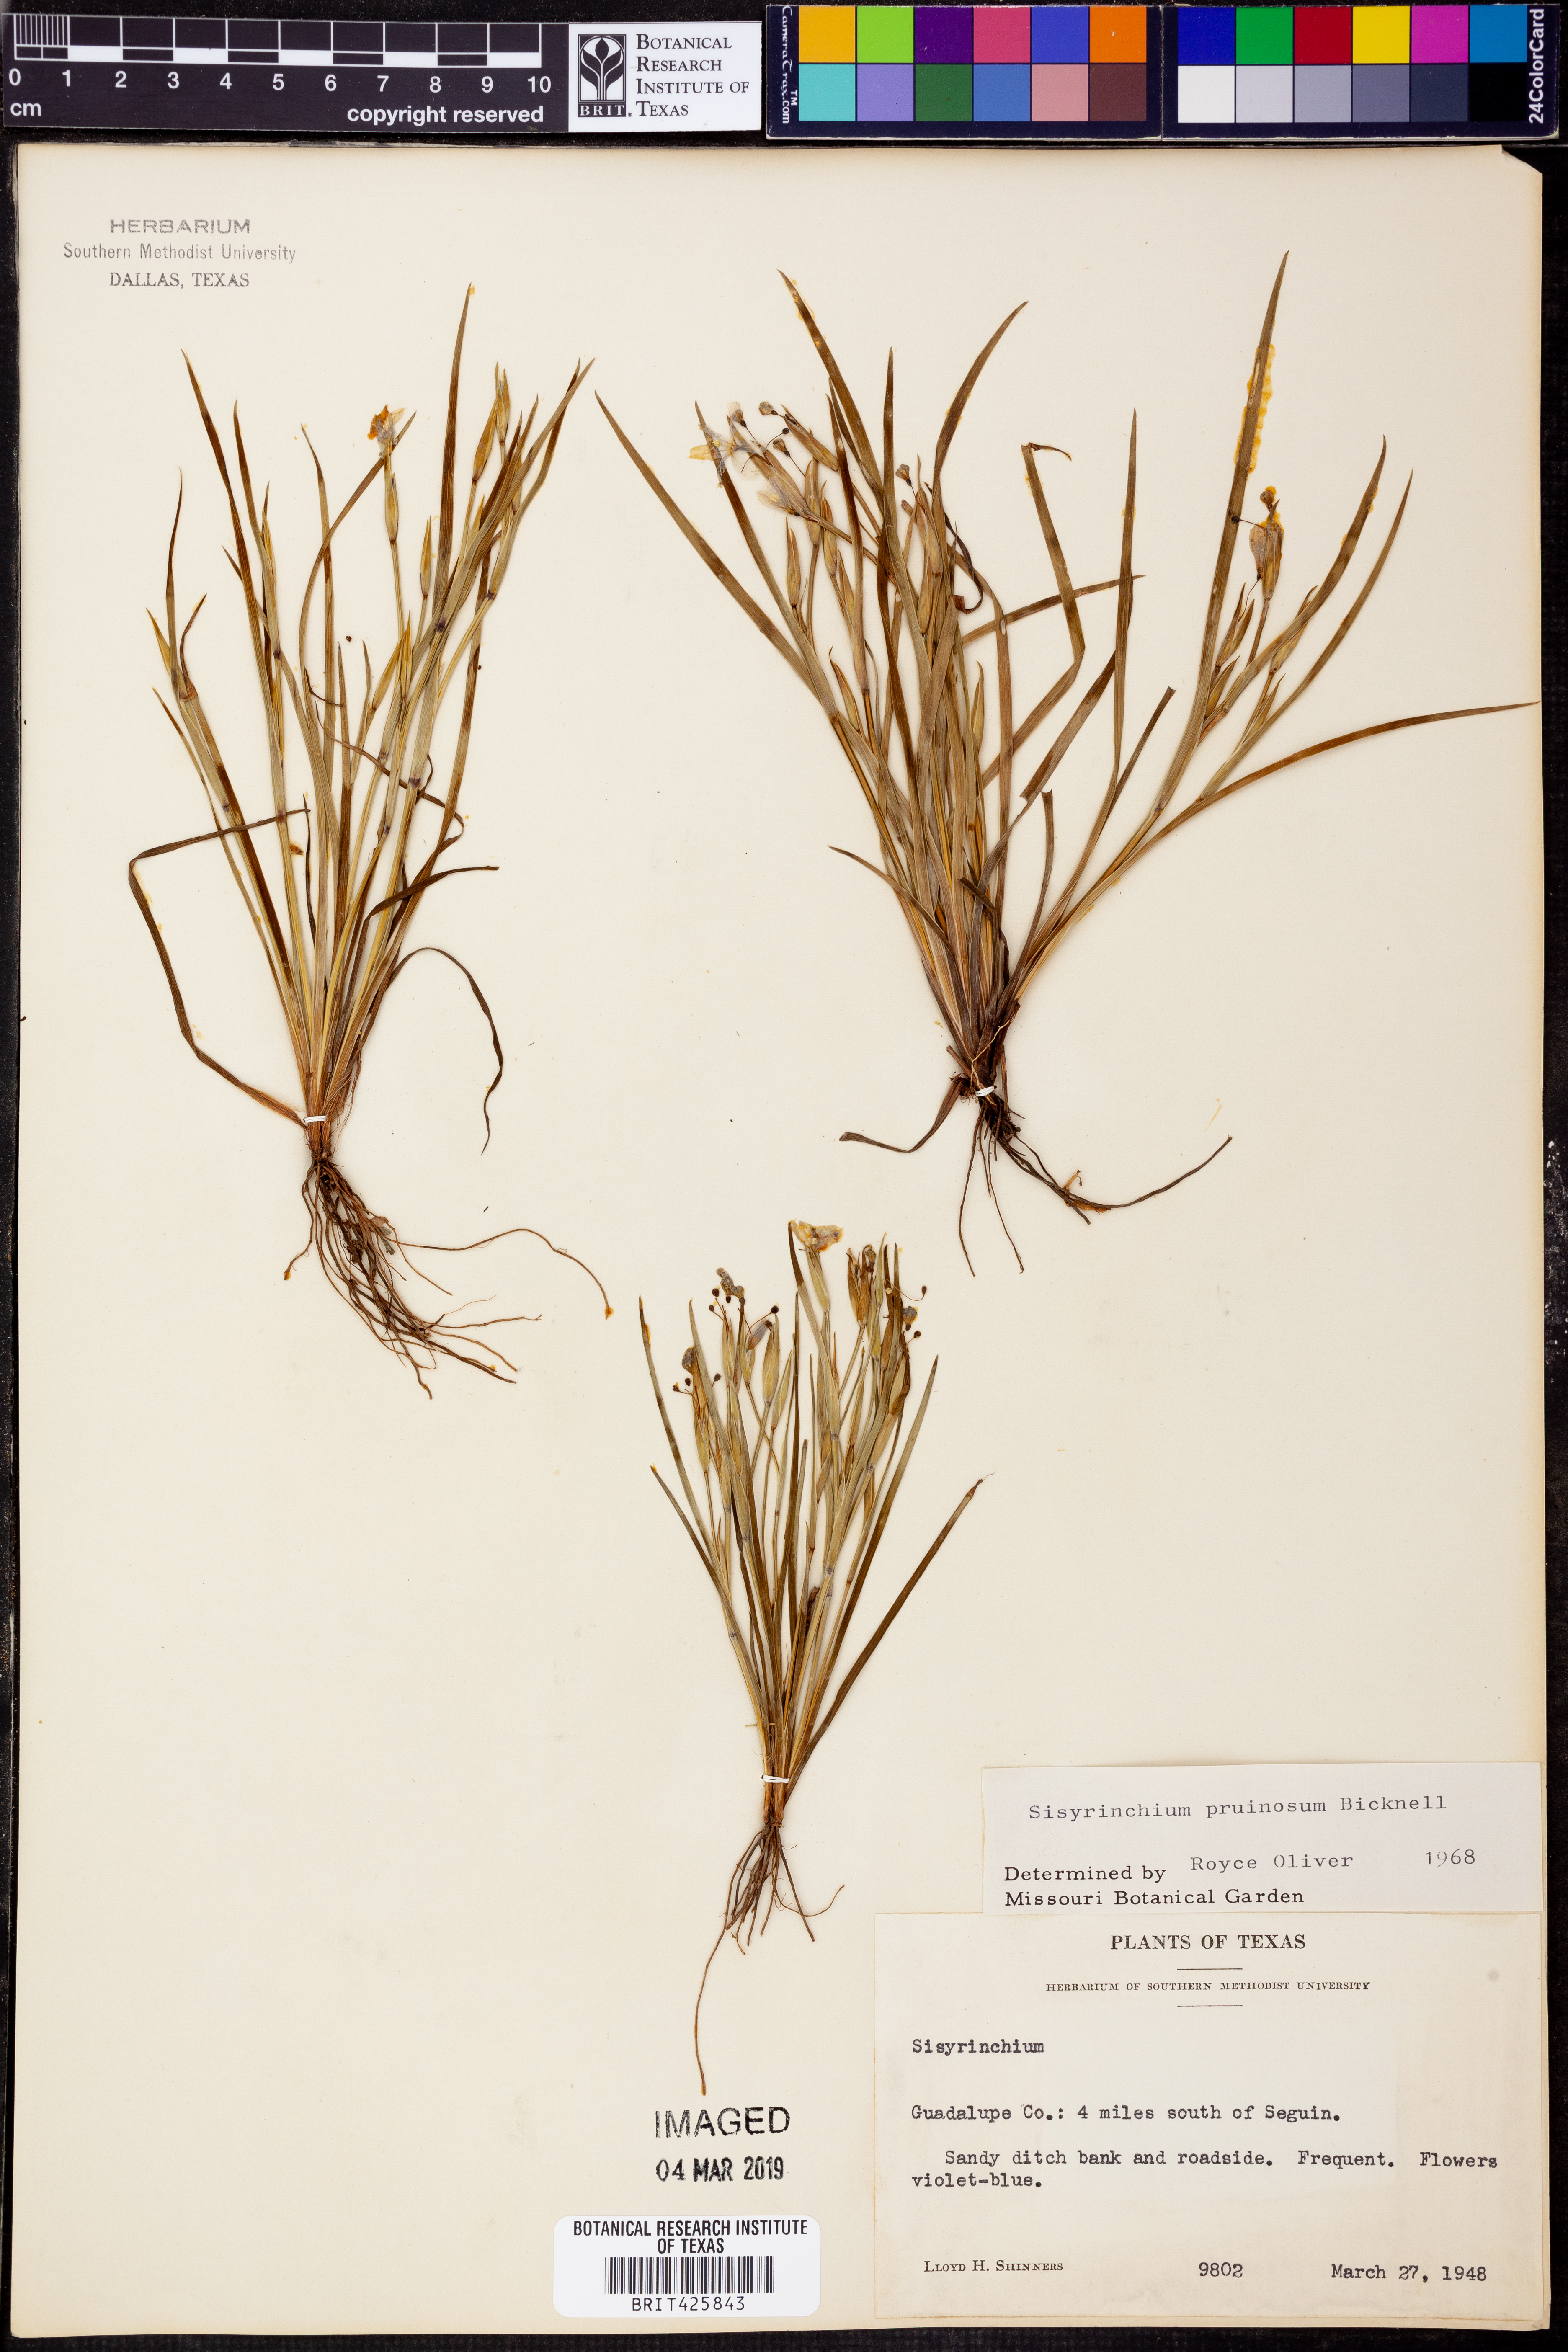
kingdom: Plantae
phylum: Tracheophyta
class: Liliopsida
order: Asparagales
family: Iridaceae
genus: Sisyrinchium
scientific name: Sisyrinchium pruinosum
